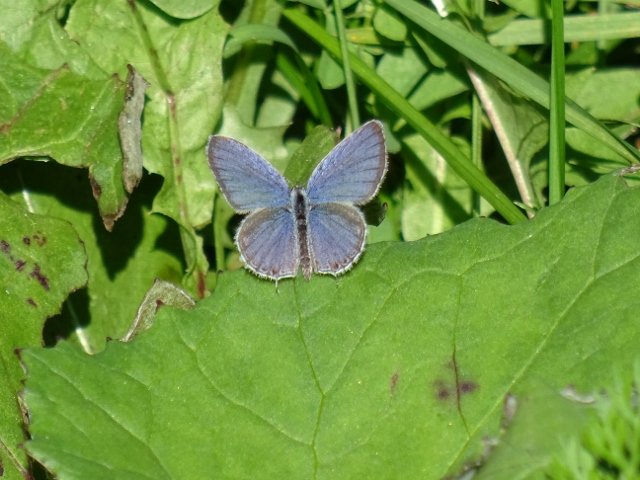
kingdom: Animalia
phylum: Arthropoda
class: Insecta
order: Lepidoptera
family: Lycaenidae
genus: Elkalyce
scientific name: Elkalyce comyntas
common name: Eastern Tailed-Blue
